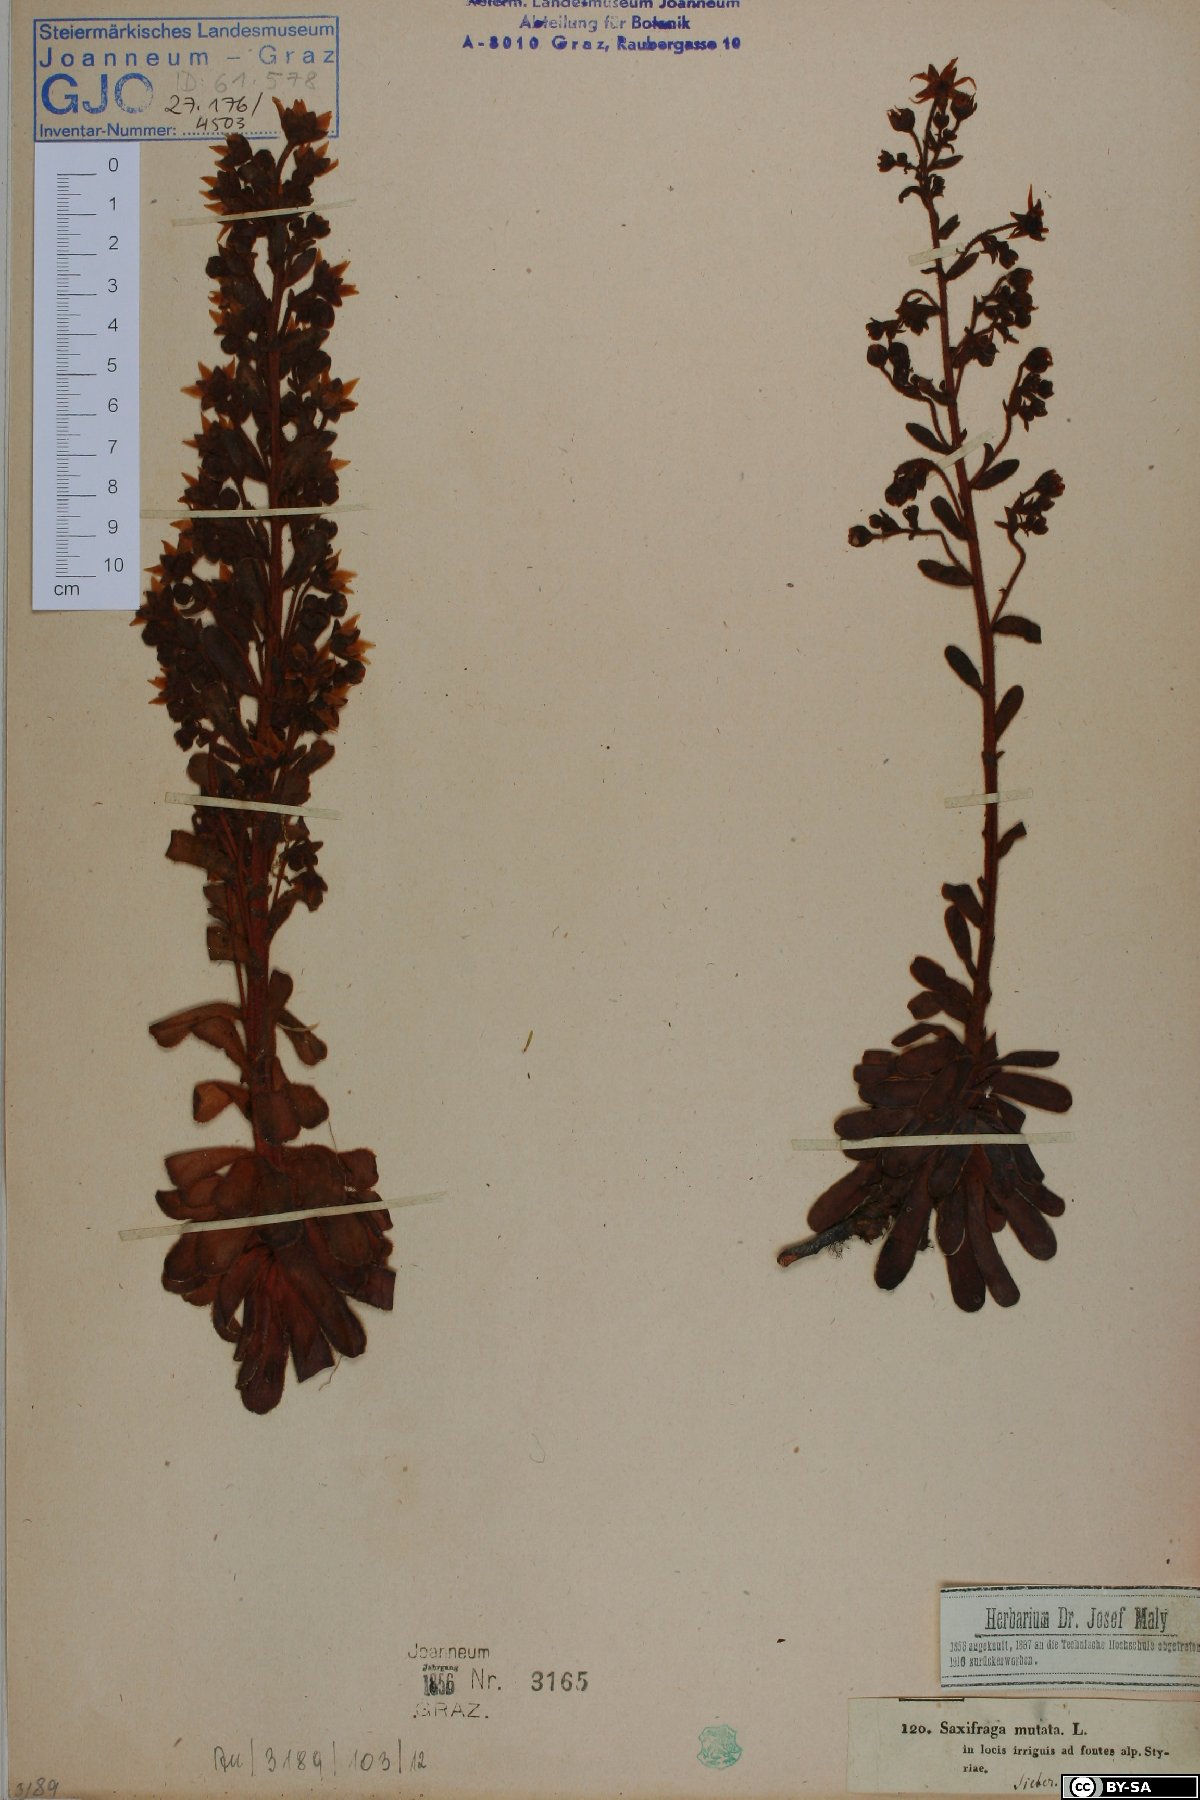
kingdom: Plantae
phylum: Tracheophyta
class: Magnoliopsida
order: Saxifragales
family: Saxifragaceae
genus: Saxifraga
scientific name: Saxifraga mutata
